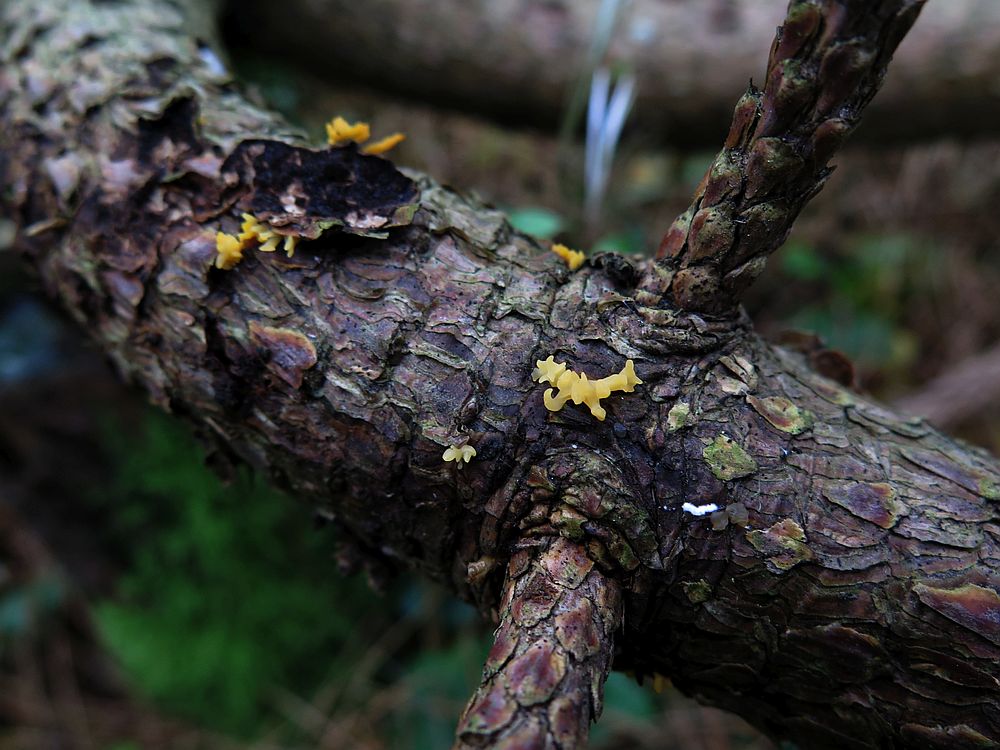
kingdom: Fungi
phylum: Basidiomycota
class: Dacrymycetes
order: Dacrymycetales
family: Dacrymycetaceae
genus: Calocera
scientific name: Calocera furcata
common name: fyrre-guldgaffel
